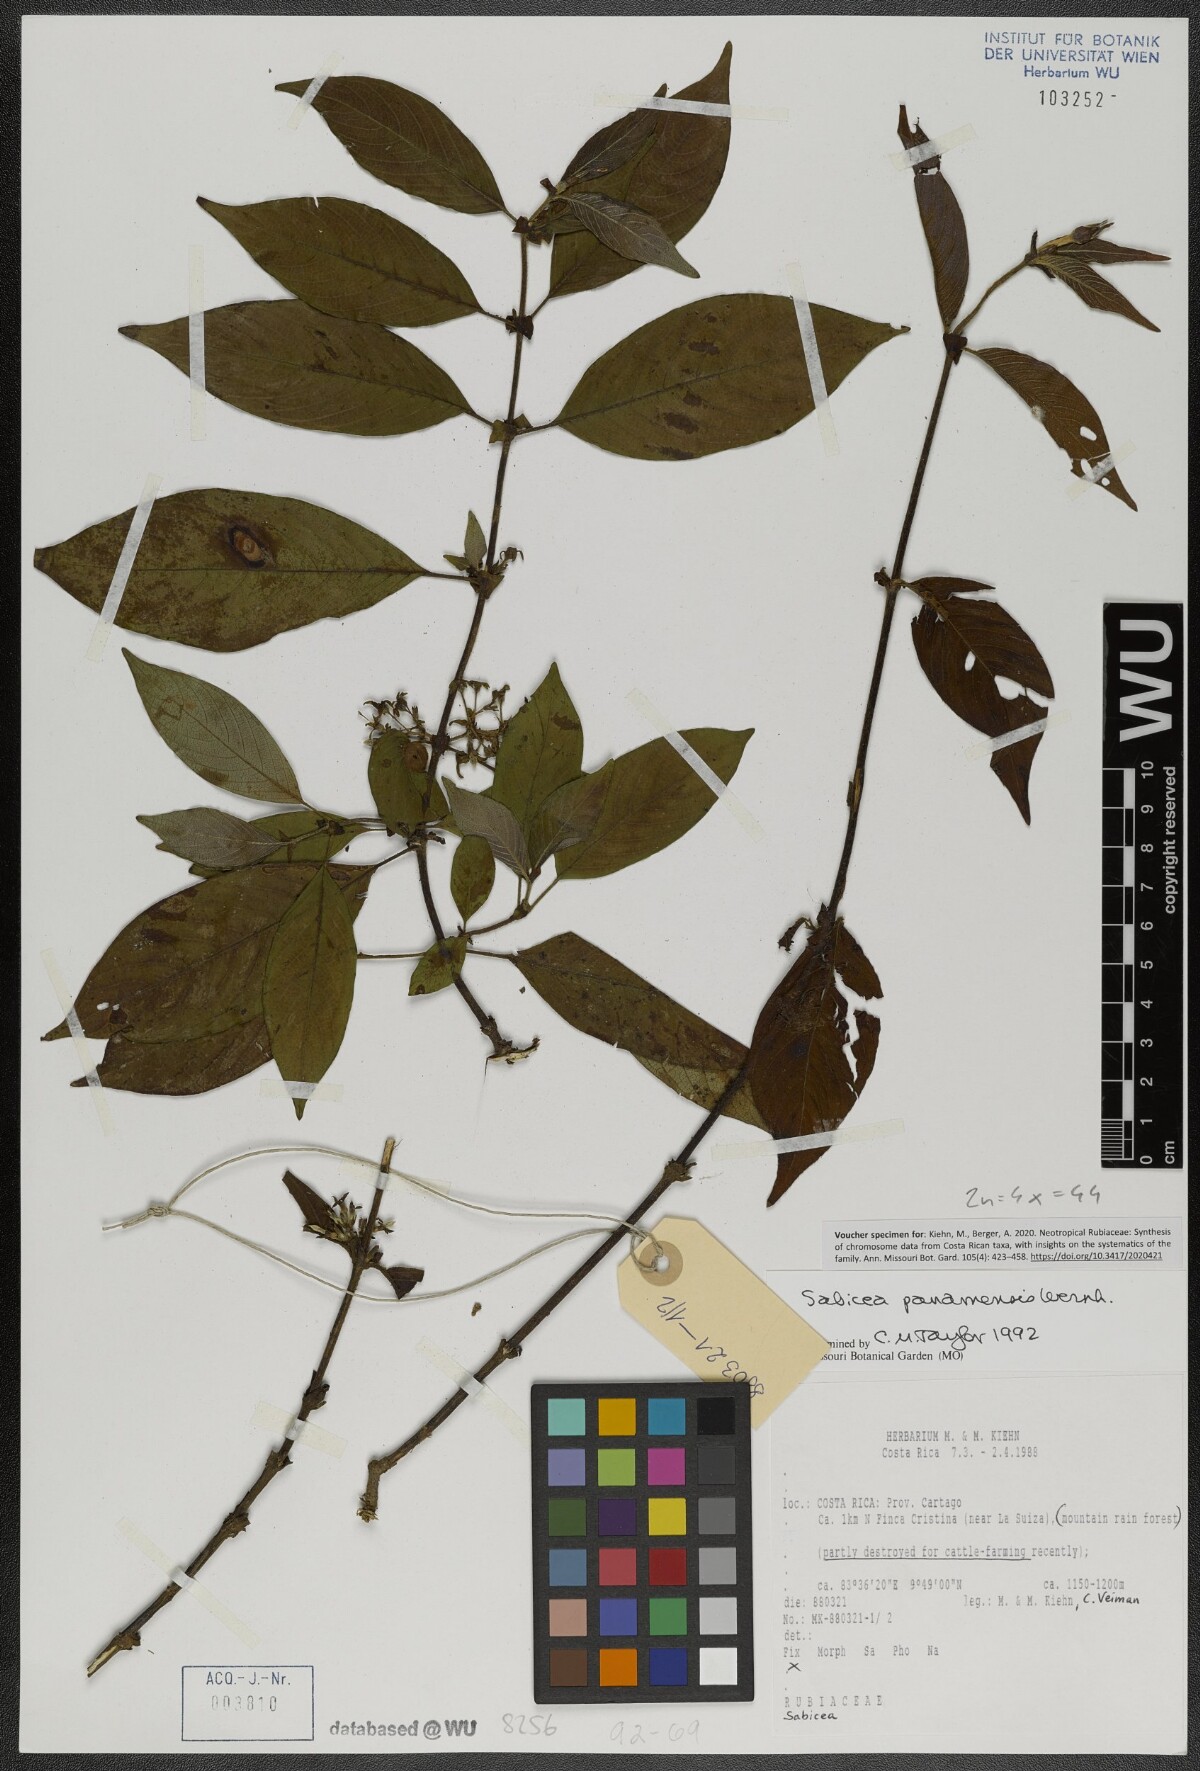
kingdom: Plantae
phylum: Tracheophyta
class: Magnoliopsida
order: Gentianales
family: Rubiaceae
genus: Sabicea
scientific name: Sabicea panamensis
